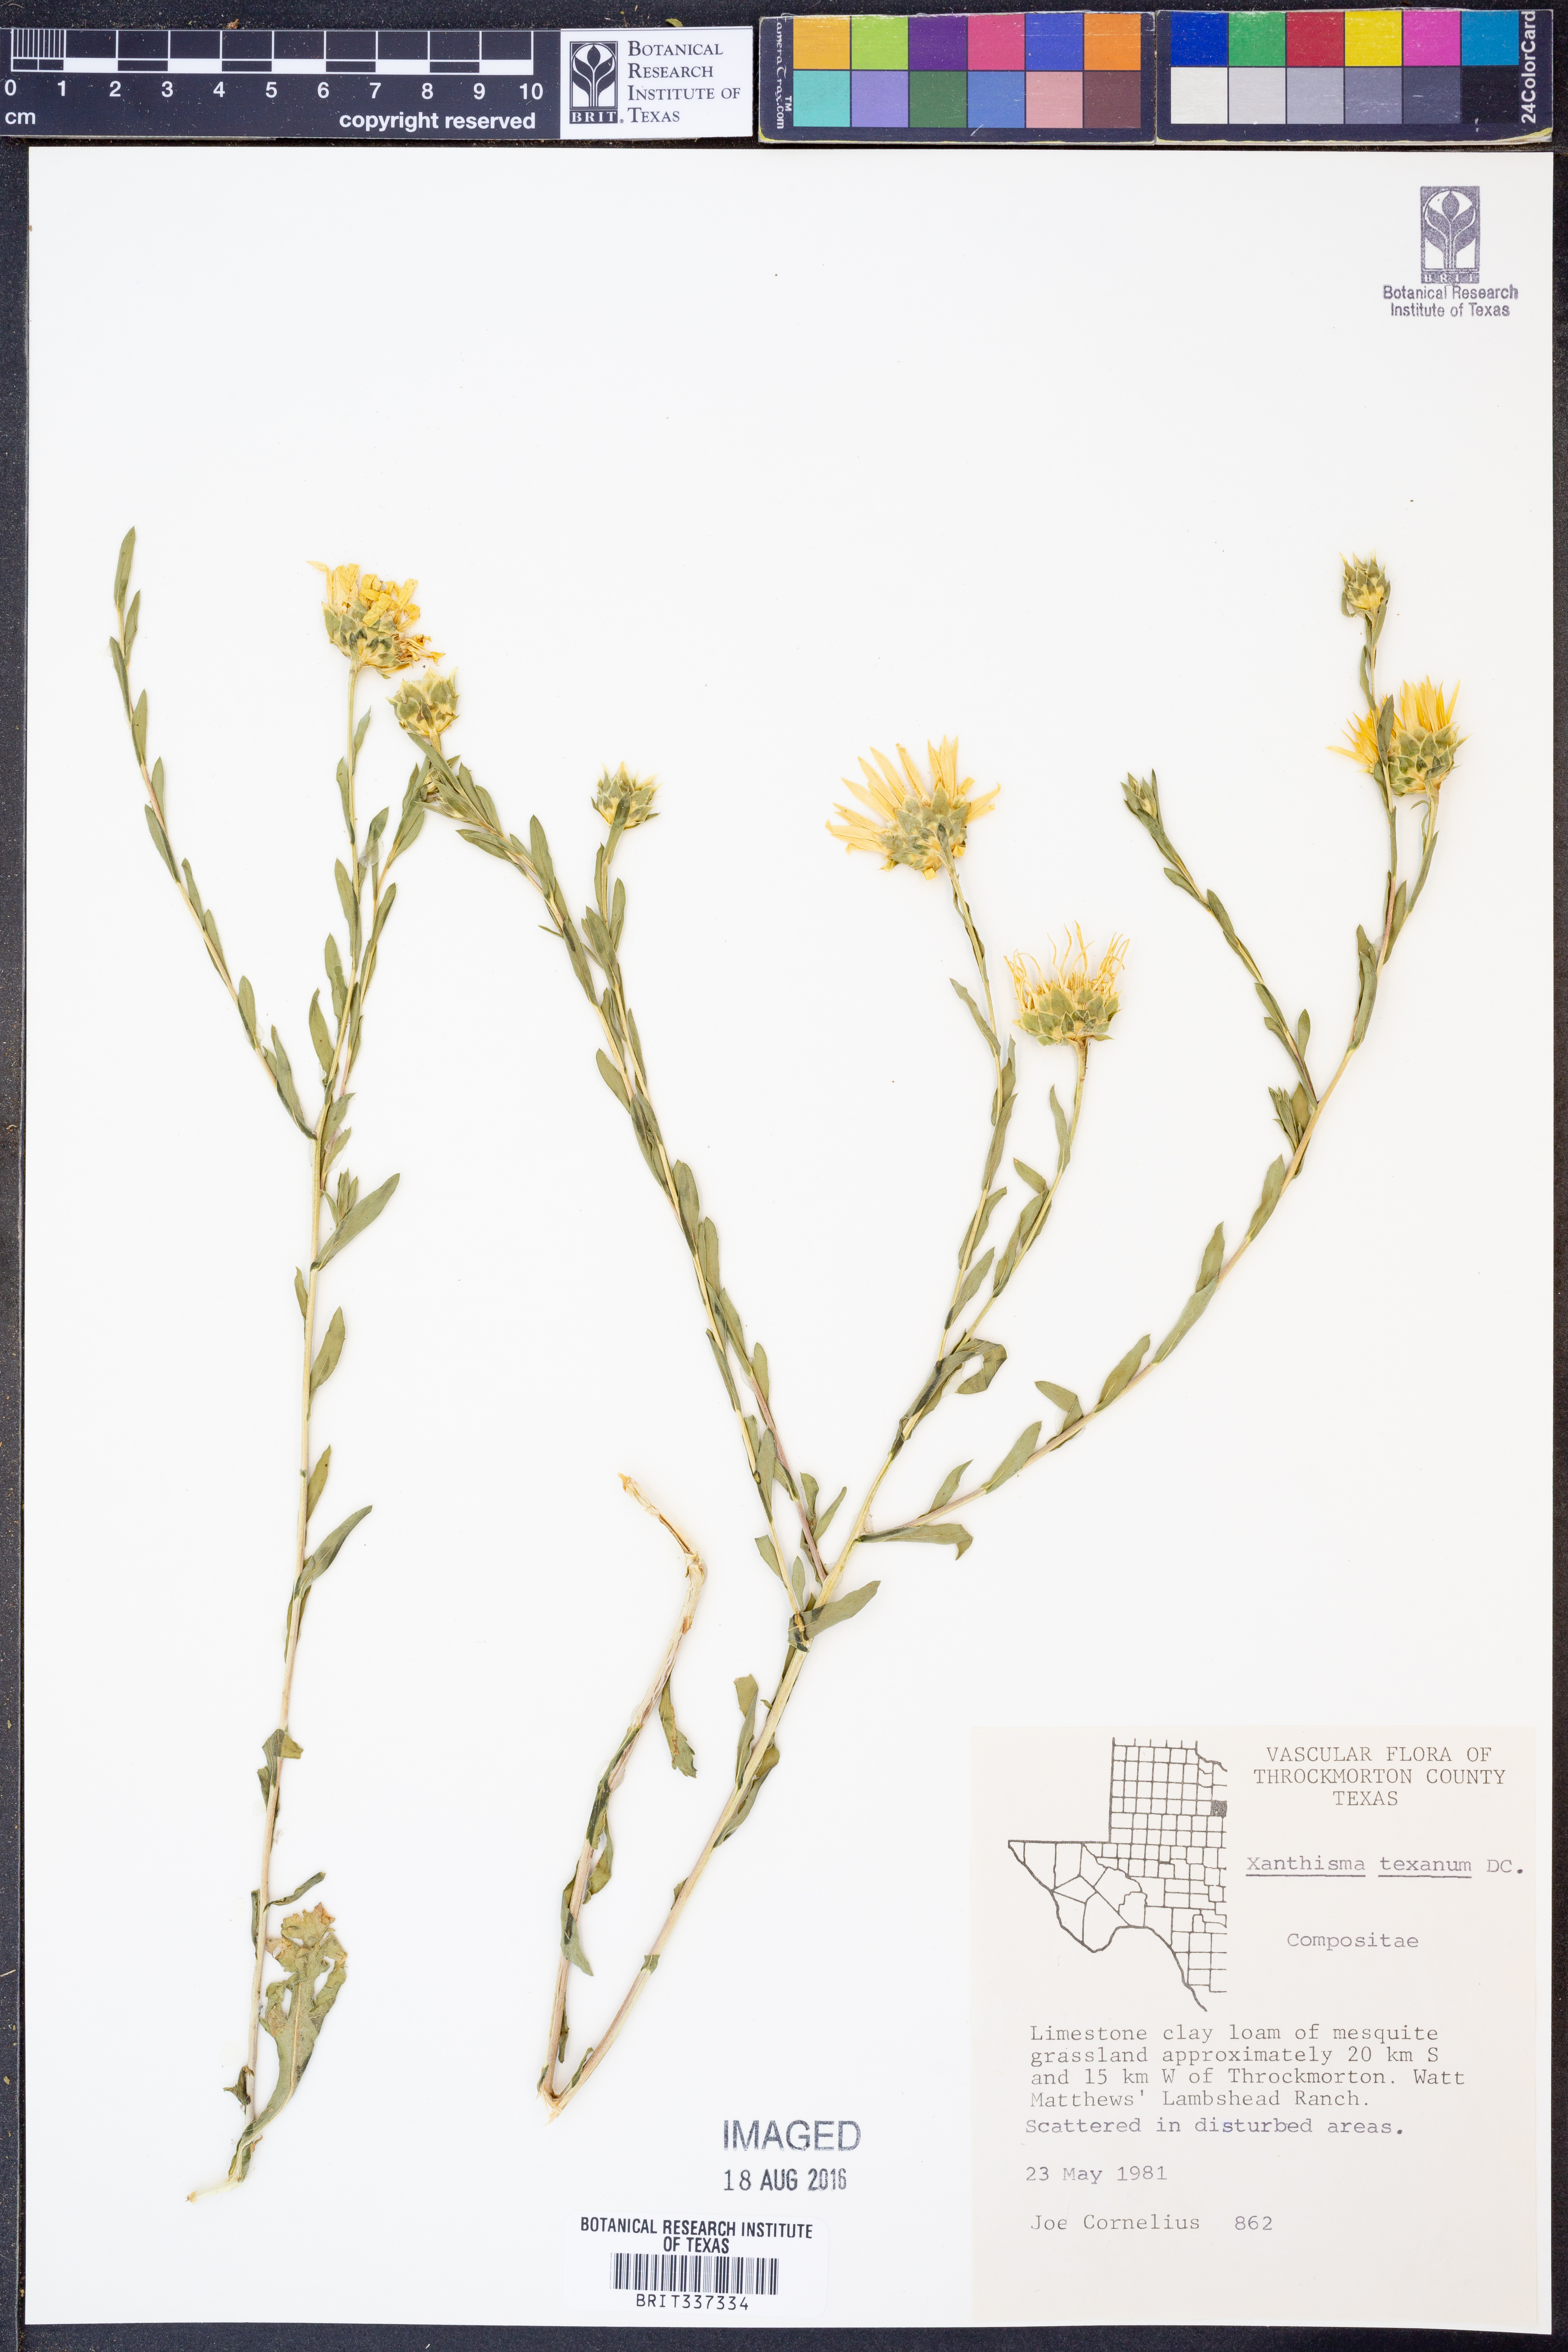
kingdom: Plantae
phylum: Tracheophyta
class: Magnoliopsida
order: Asterales
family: Asteraceae
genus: Xanthisma
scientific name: Xanthisma texanum
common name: Texas sleepy daisy
